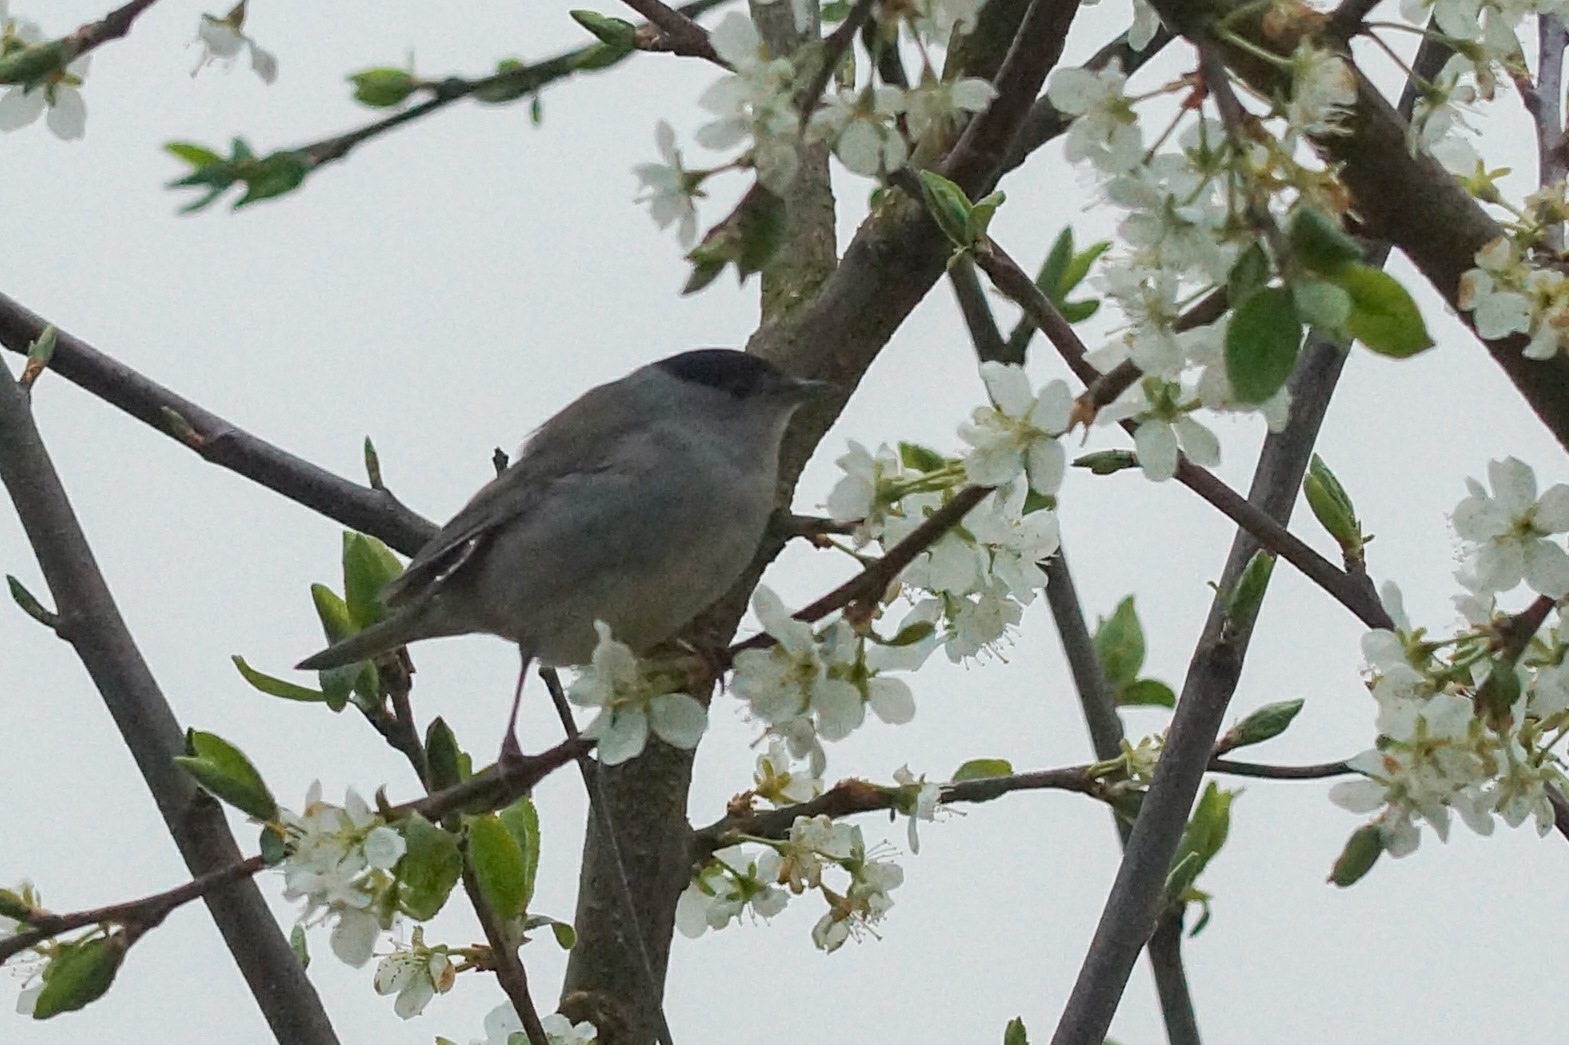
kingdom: Animalia
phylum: Chordata
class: Aves
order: Passeriformes
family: Sylviidae
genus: Sylvia
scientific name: Sylvia atricapilla
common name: Munk
